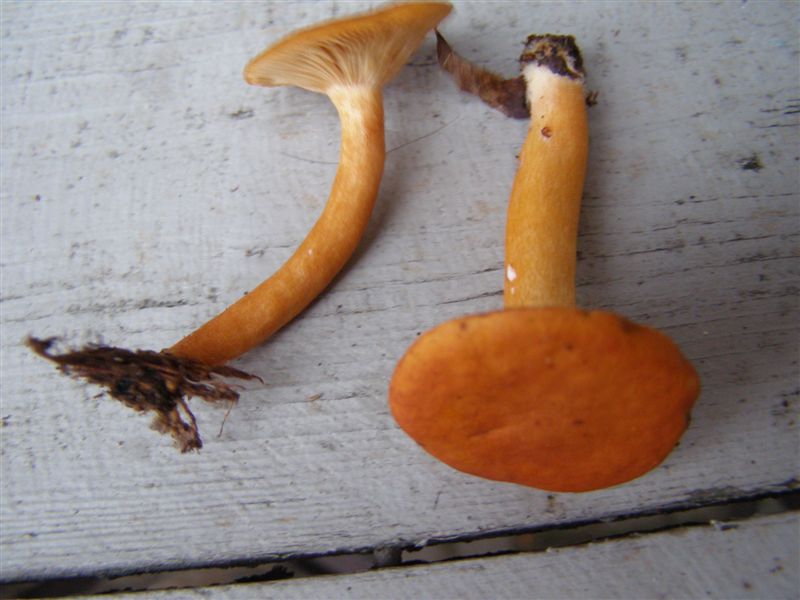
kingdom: Fungi
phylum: Basidiomycota
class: Agaricomycetes
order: Russulales
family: Russulaceae
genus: Lactarius
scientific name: Lactarius aurantiacus
